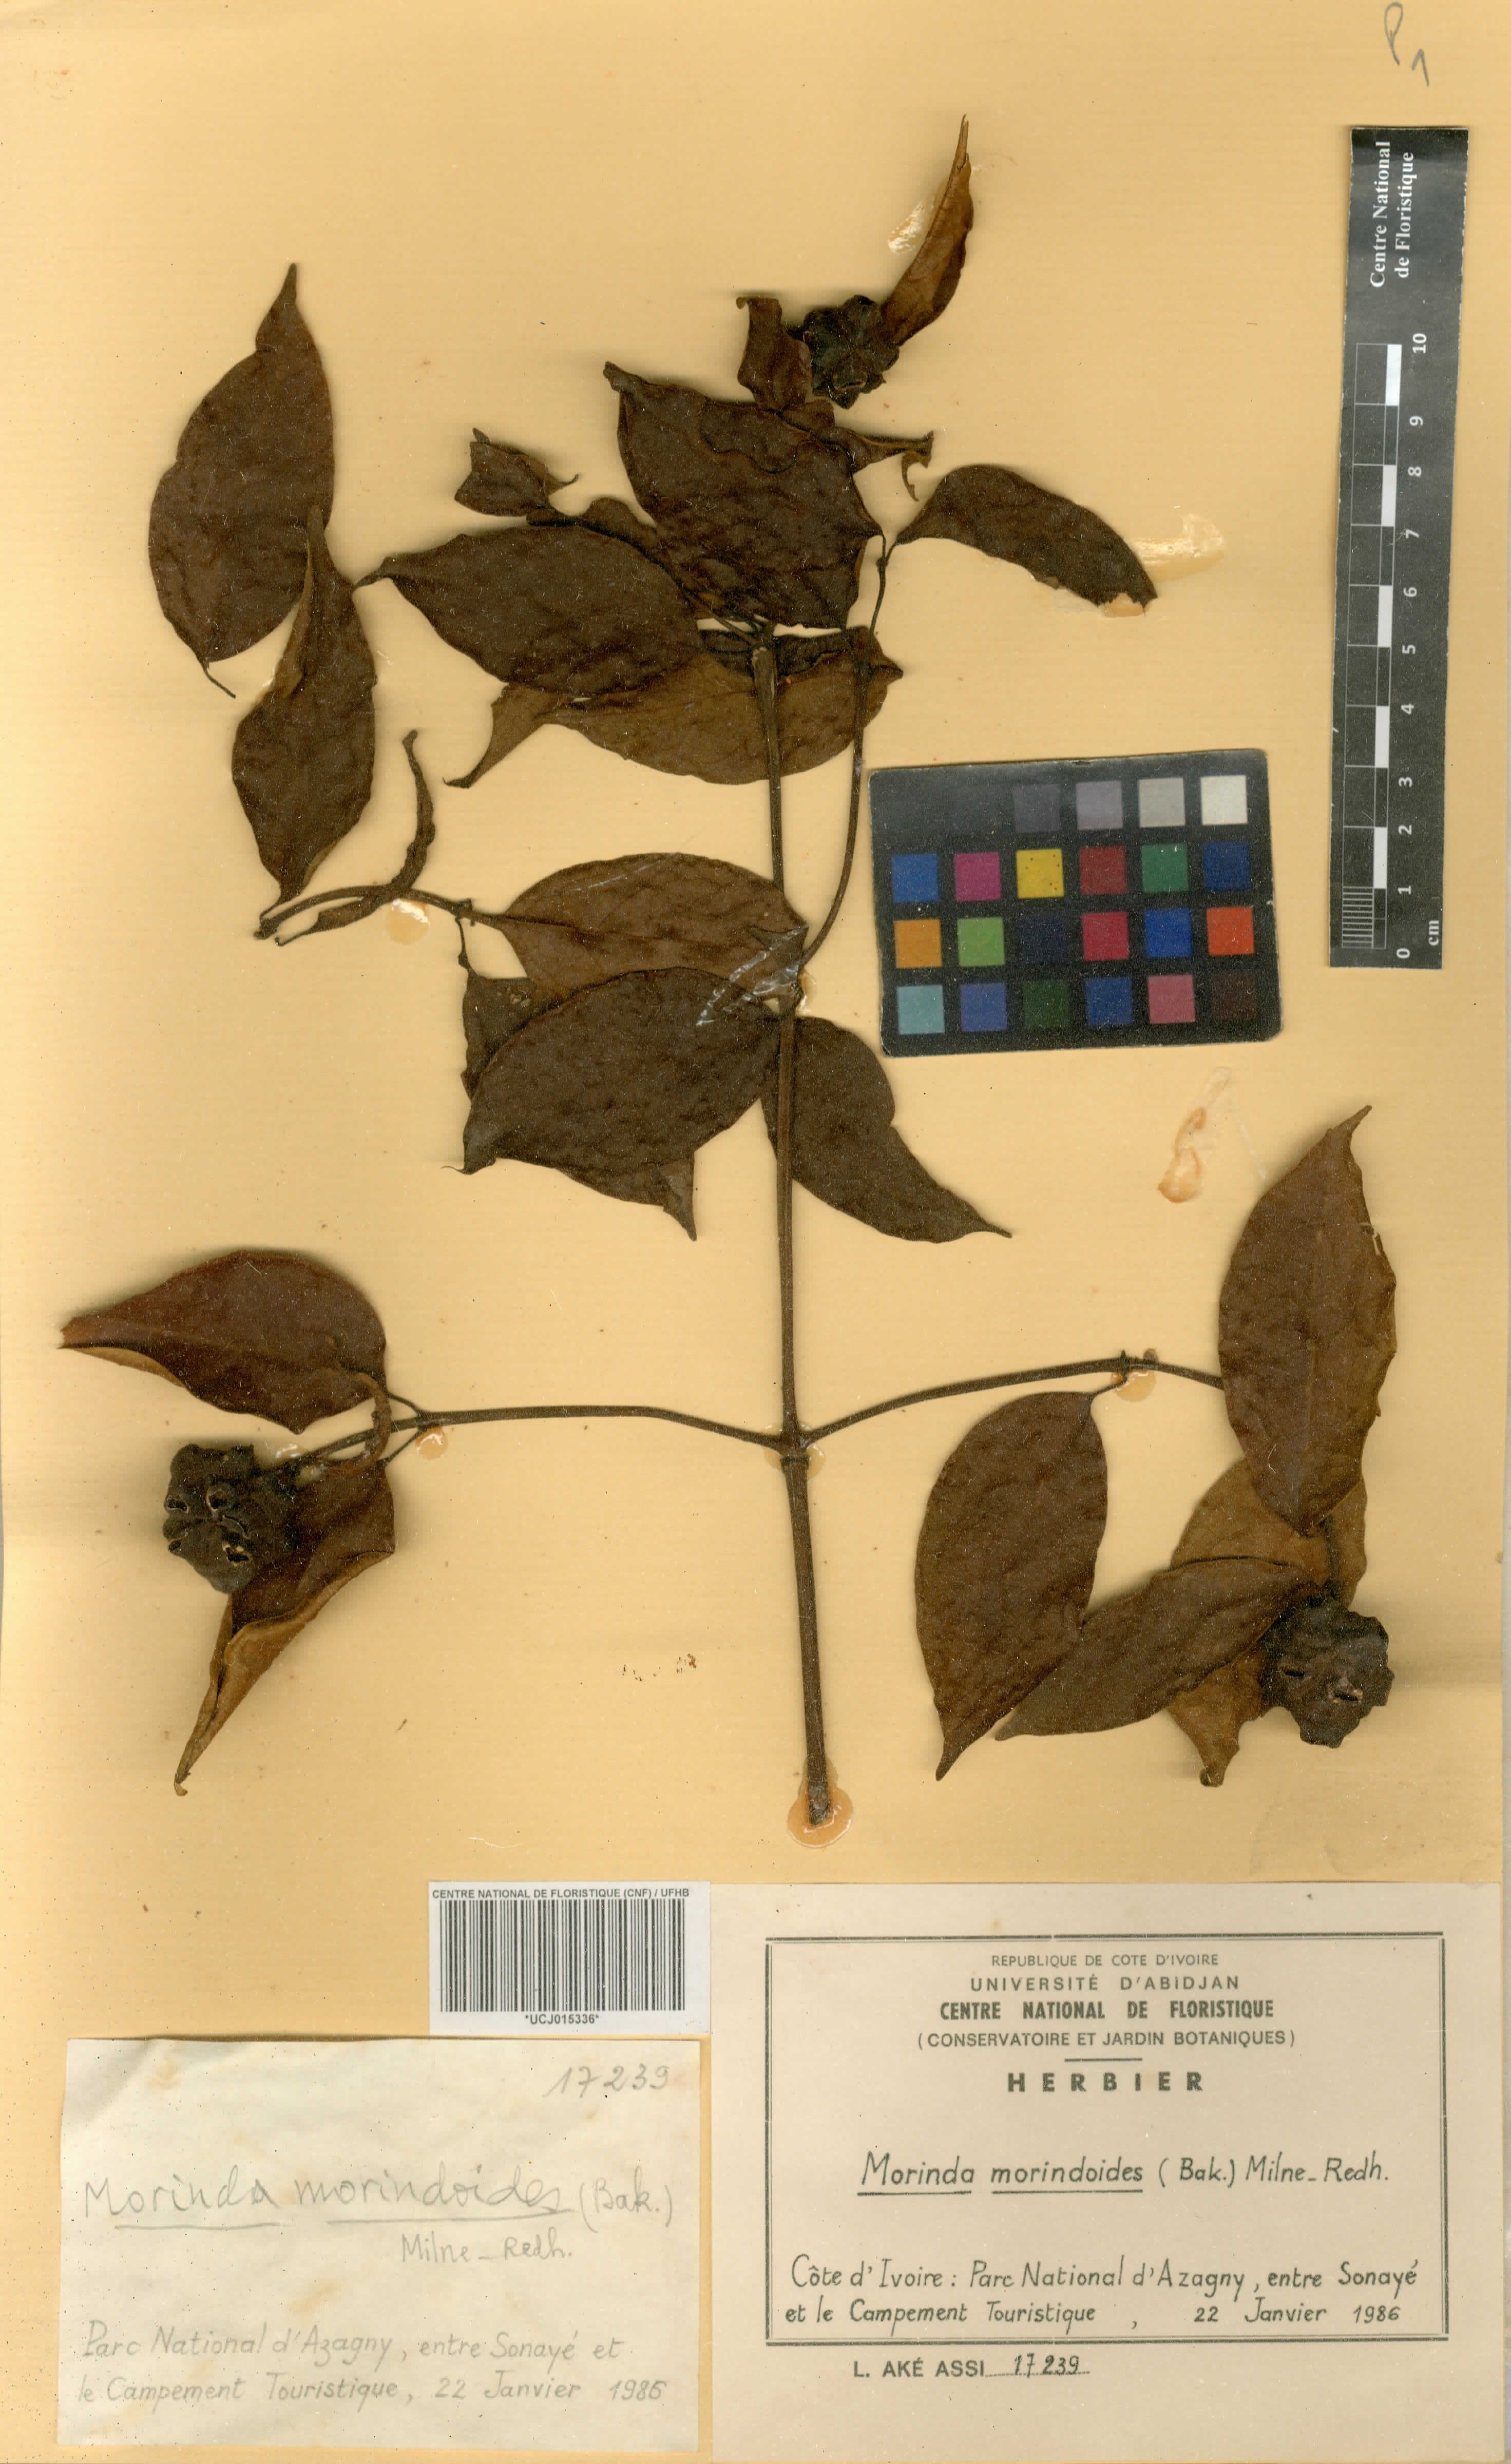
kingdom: Plantae
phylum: Tracheophyta
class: Magnoliopsida
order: Gentianales
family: Rubiaceae
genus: Morinda
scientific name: Morinda morindoides
